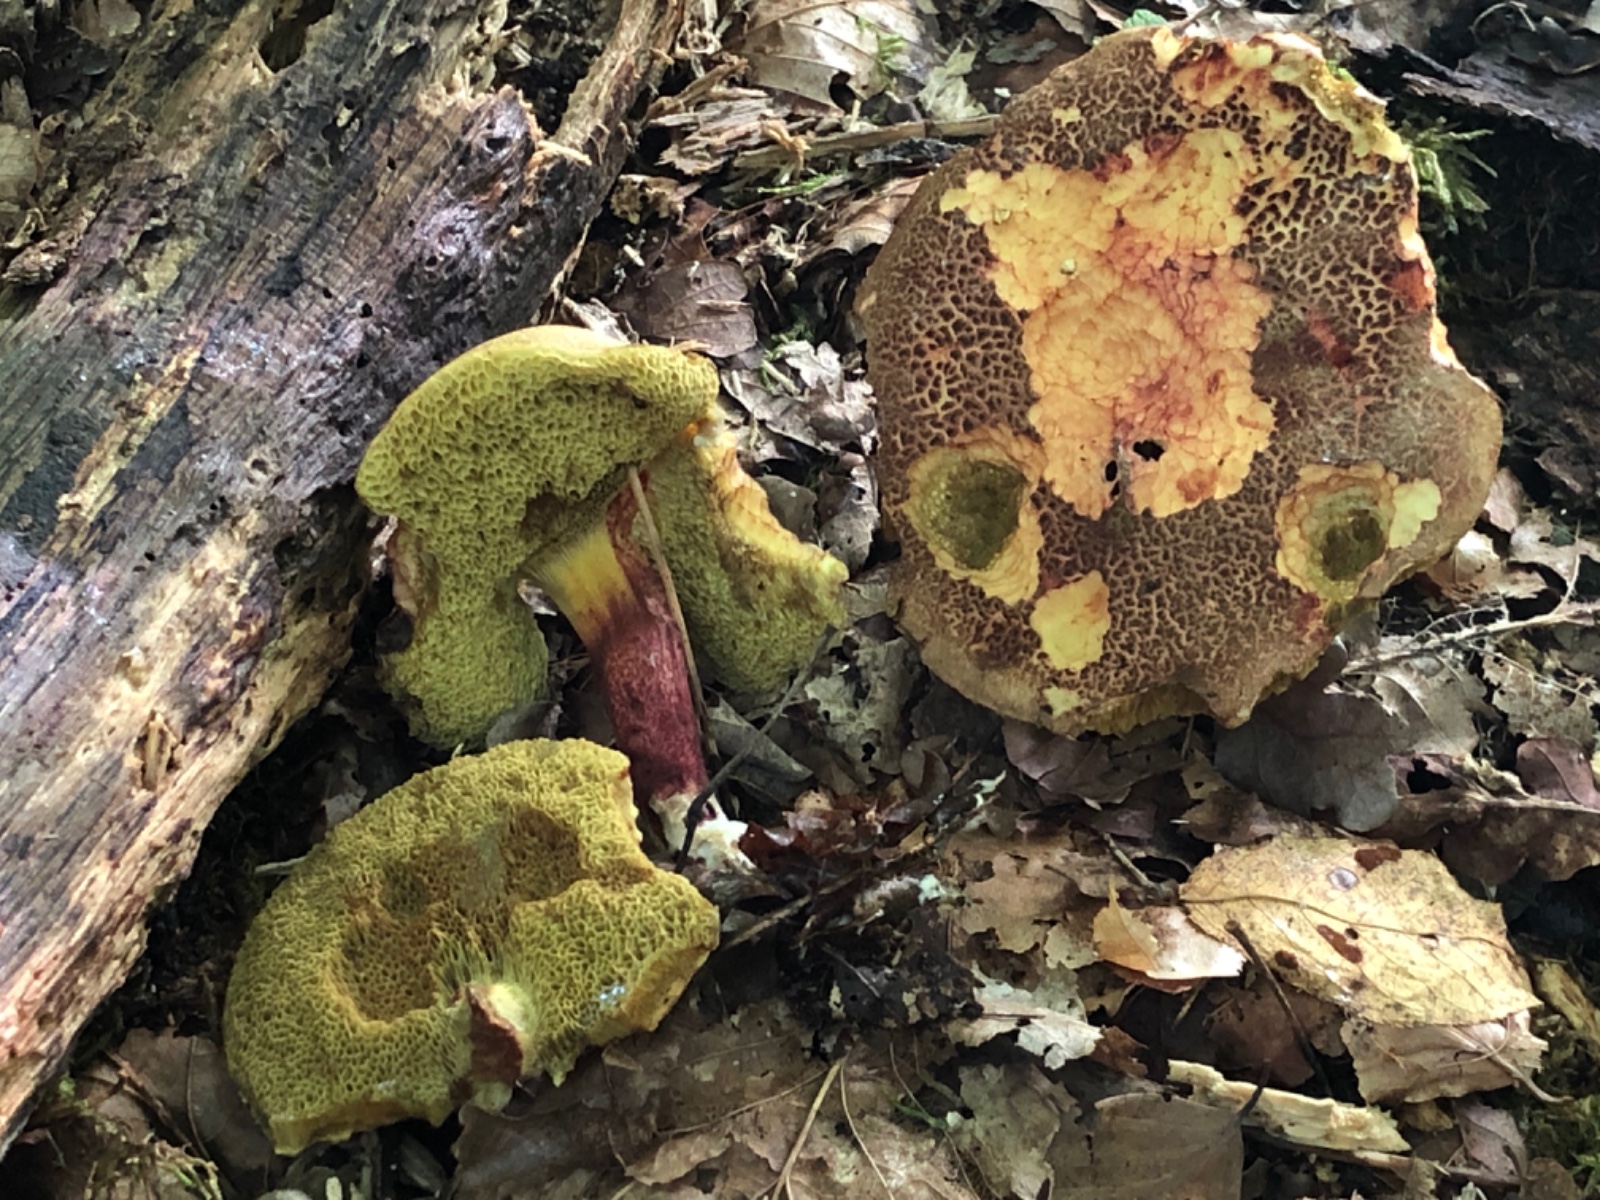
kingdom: Fungi
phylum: Basidiomycota
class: Agaricomycetes
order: Boletales
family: Boletaceae
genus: Xerocomellus
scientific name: Xerocomellus chrysenteron
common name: rødsprukken rørhat
